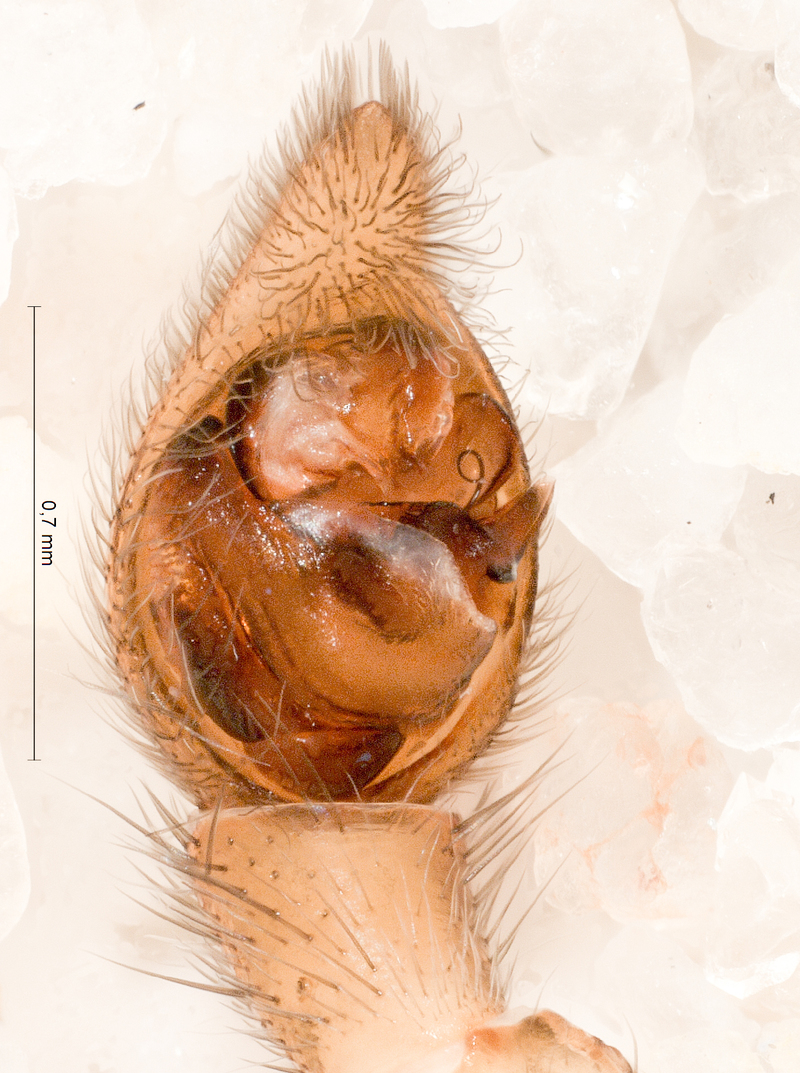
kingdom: Animalia
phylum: Arthropoda
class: Arachnida
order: Araneae
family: Lycosidae
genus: Trochosa
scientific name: Trochosa terricola
